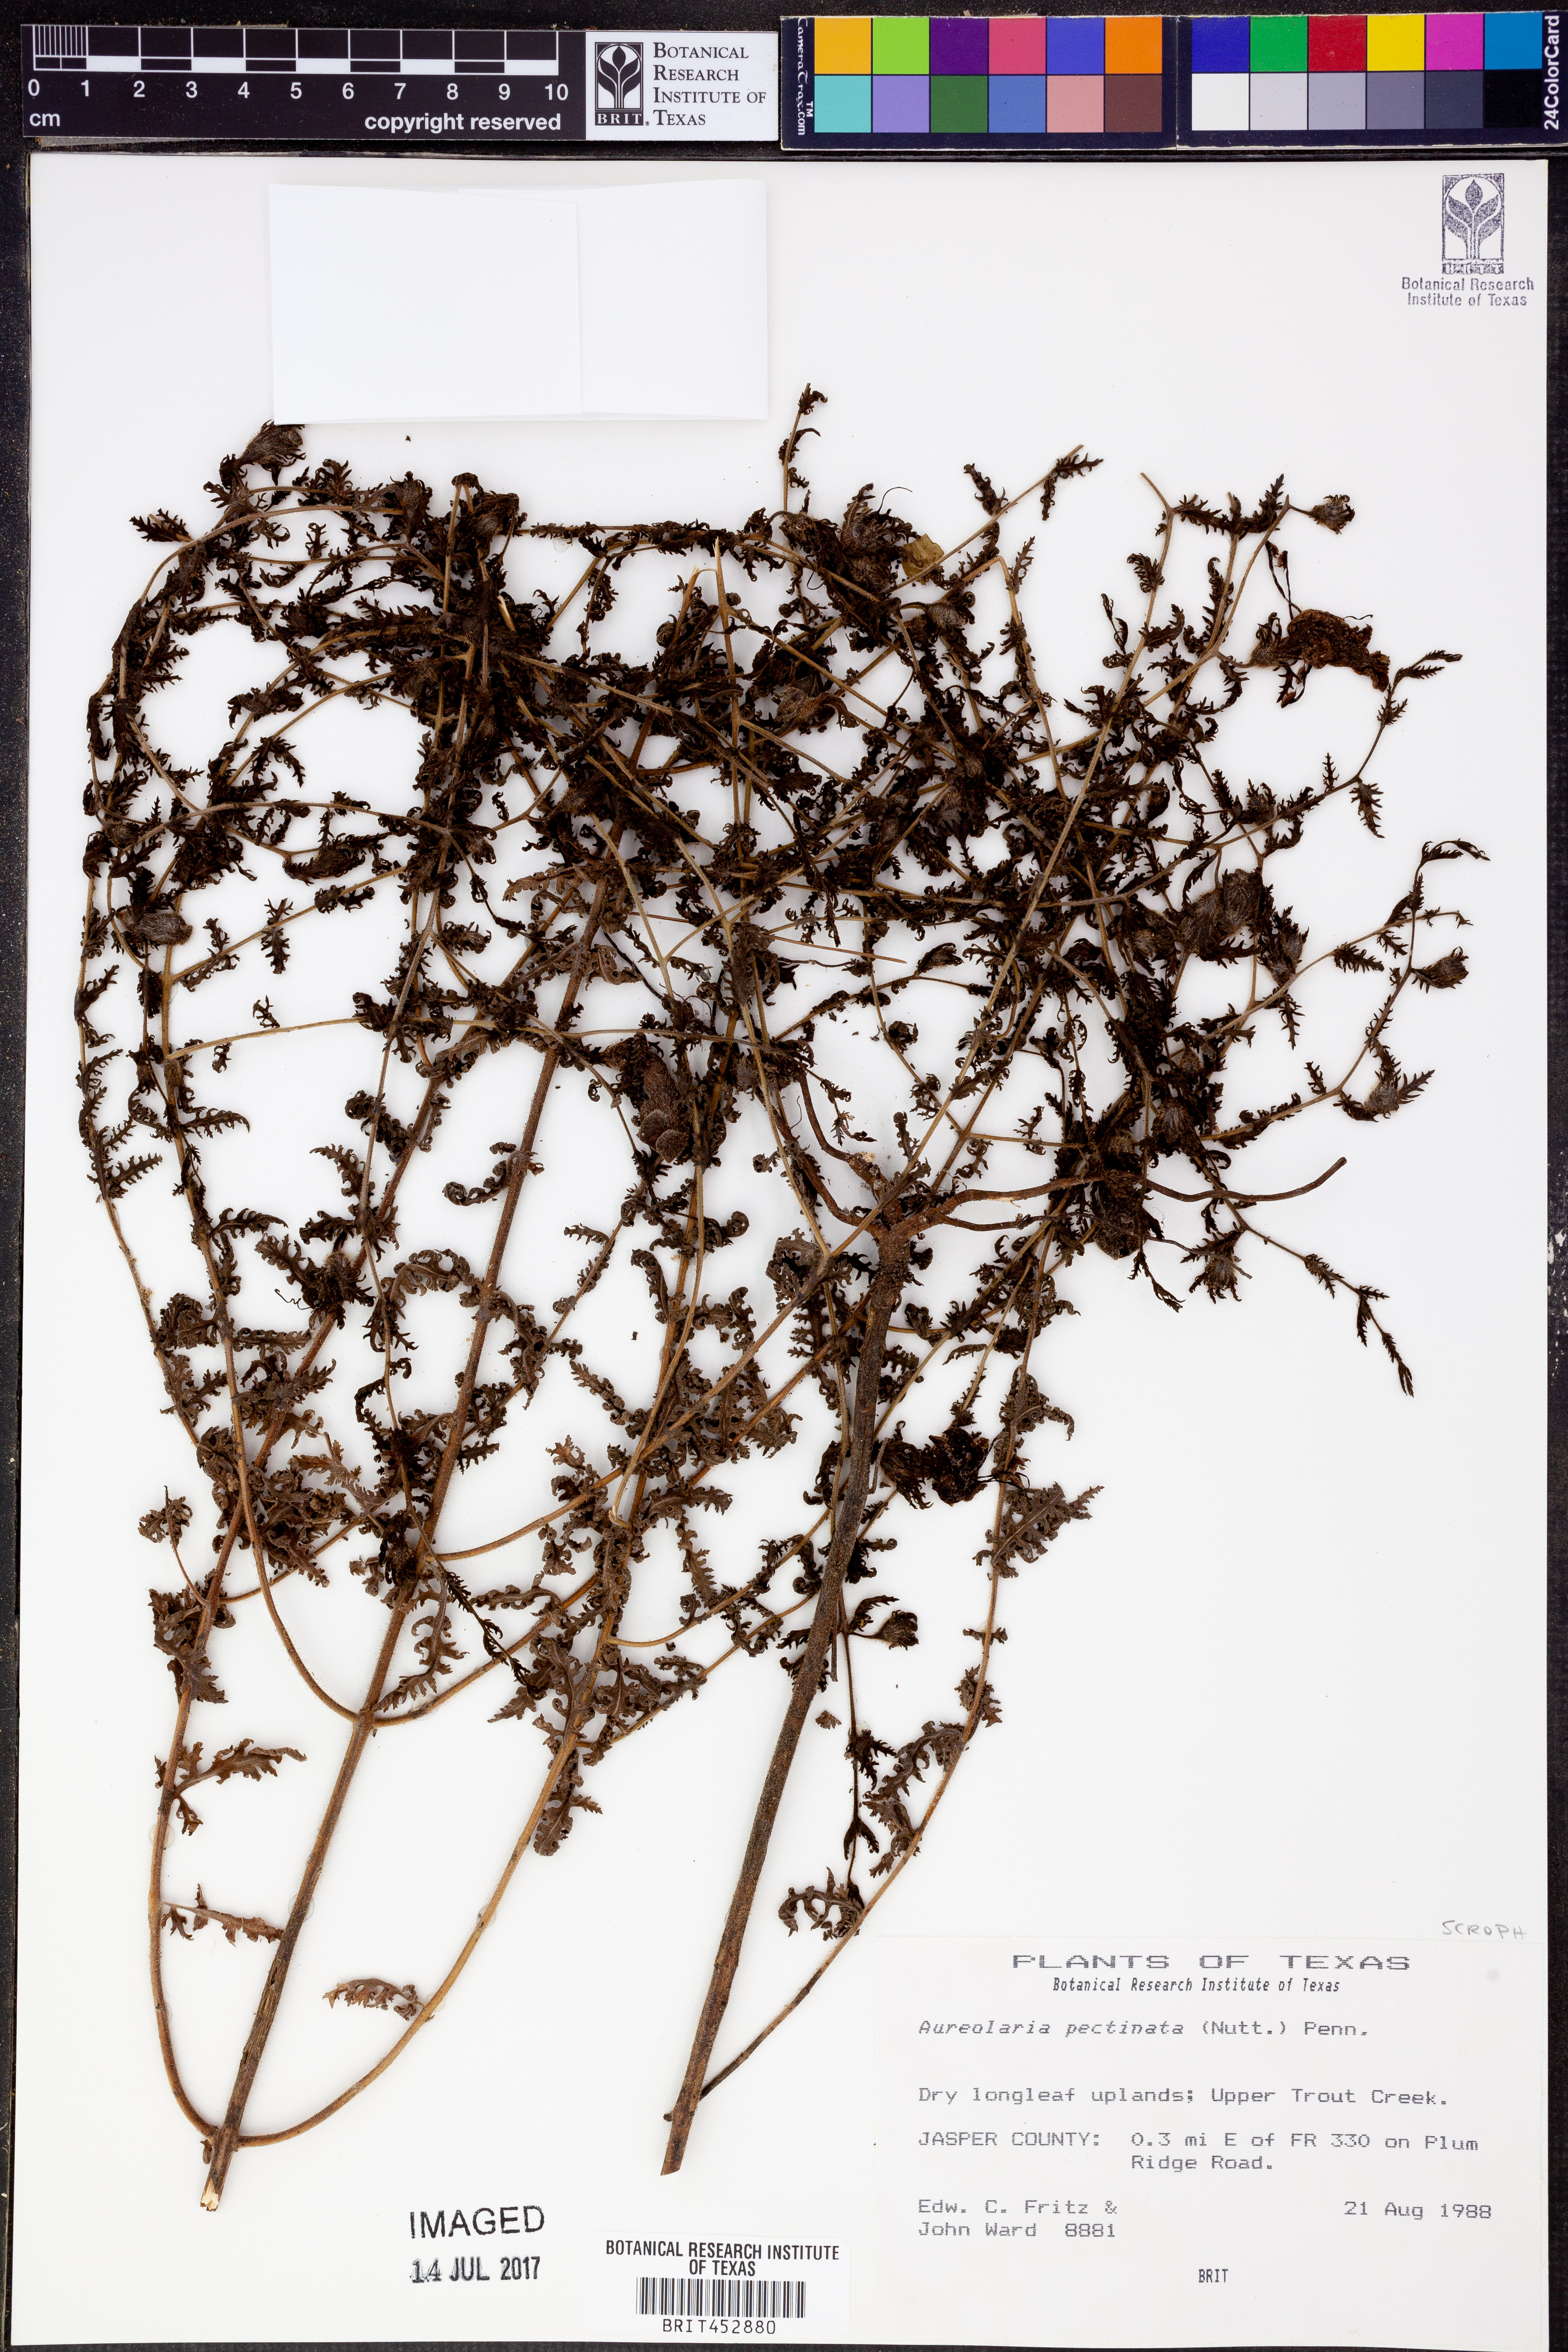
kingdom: Plantae
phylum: Tracheophyta
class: Magnoliopsida
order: Lamiales
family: Orobanchaceae
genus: Aureolaria
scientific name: Aureolaria pectinata
